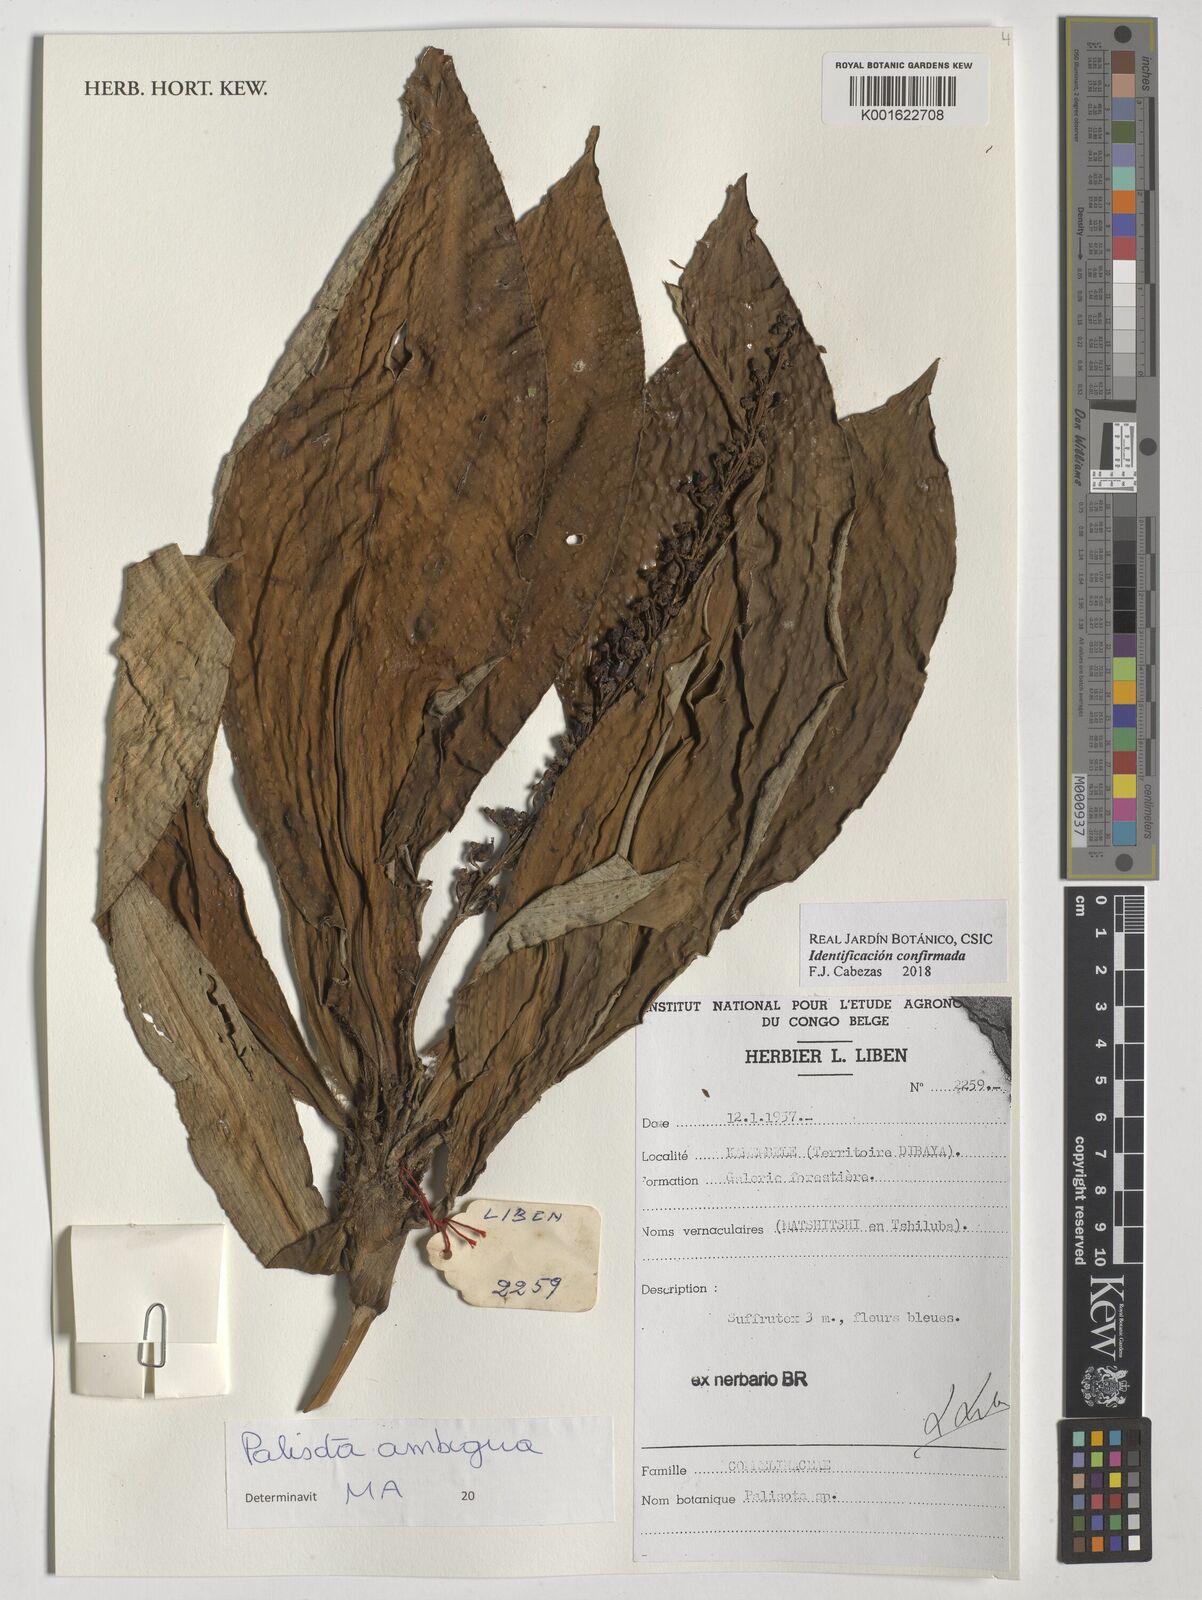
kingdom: Plantae
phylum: Tracheophyta
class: Liliopsida
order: Commelinales
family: Commelinaceae
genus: Palisota
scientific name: Palisota ambigua
